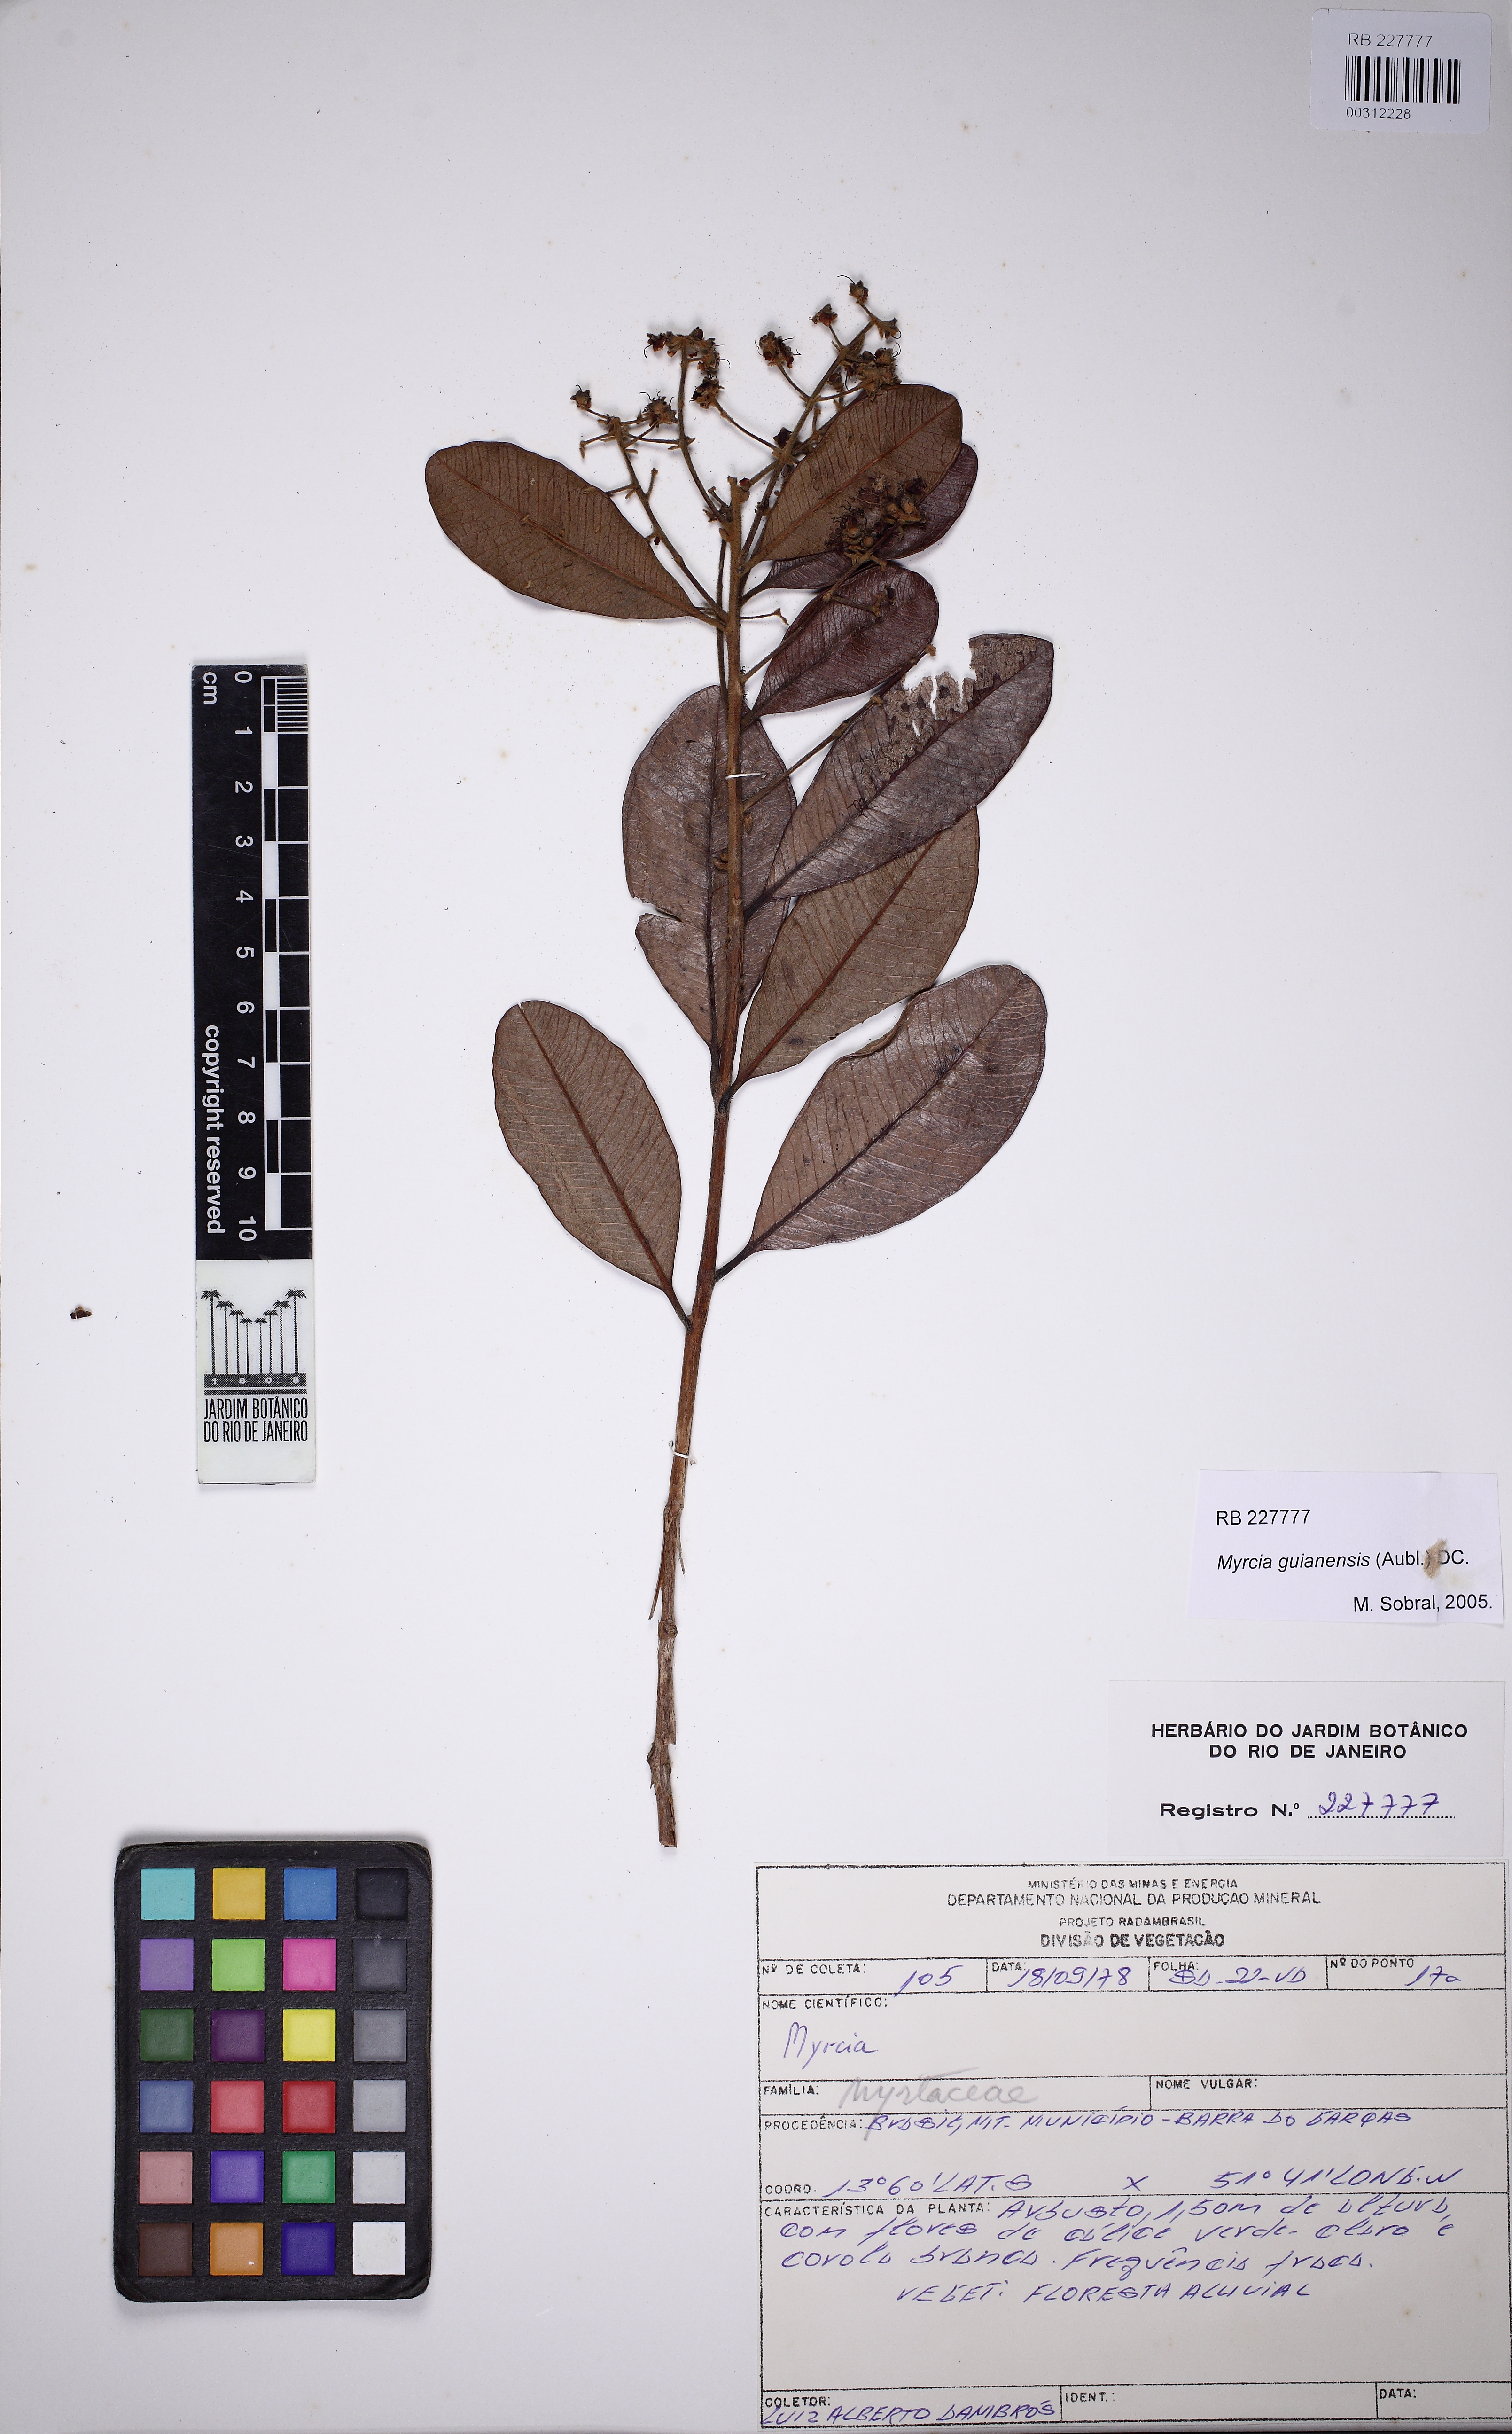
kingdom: Plantae
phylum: Tracheophyta
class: Magnoliopsida
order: Myrtales
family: Myrtaceae
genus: Myrcia
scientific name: Myrcia guianensis
